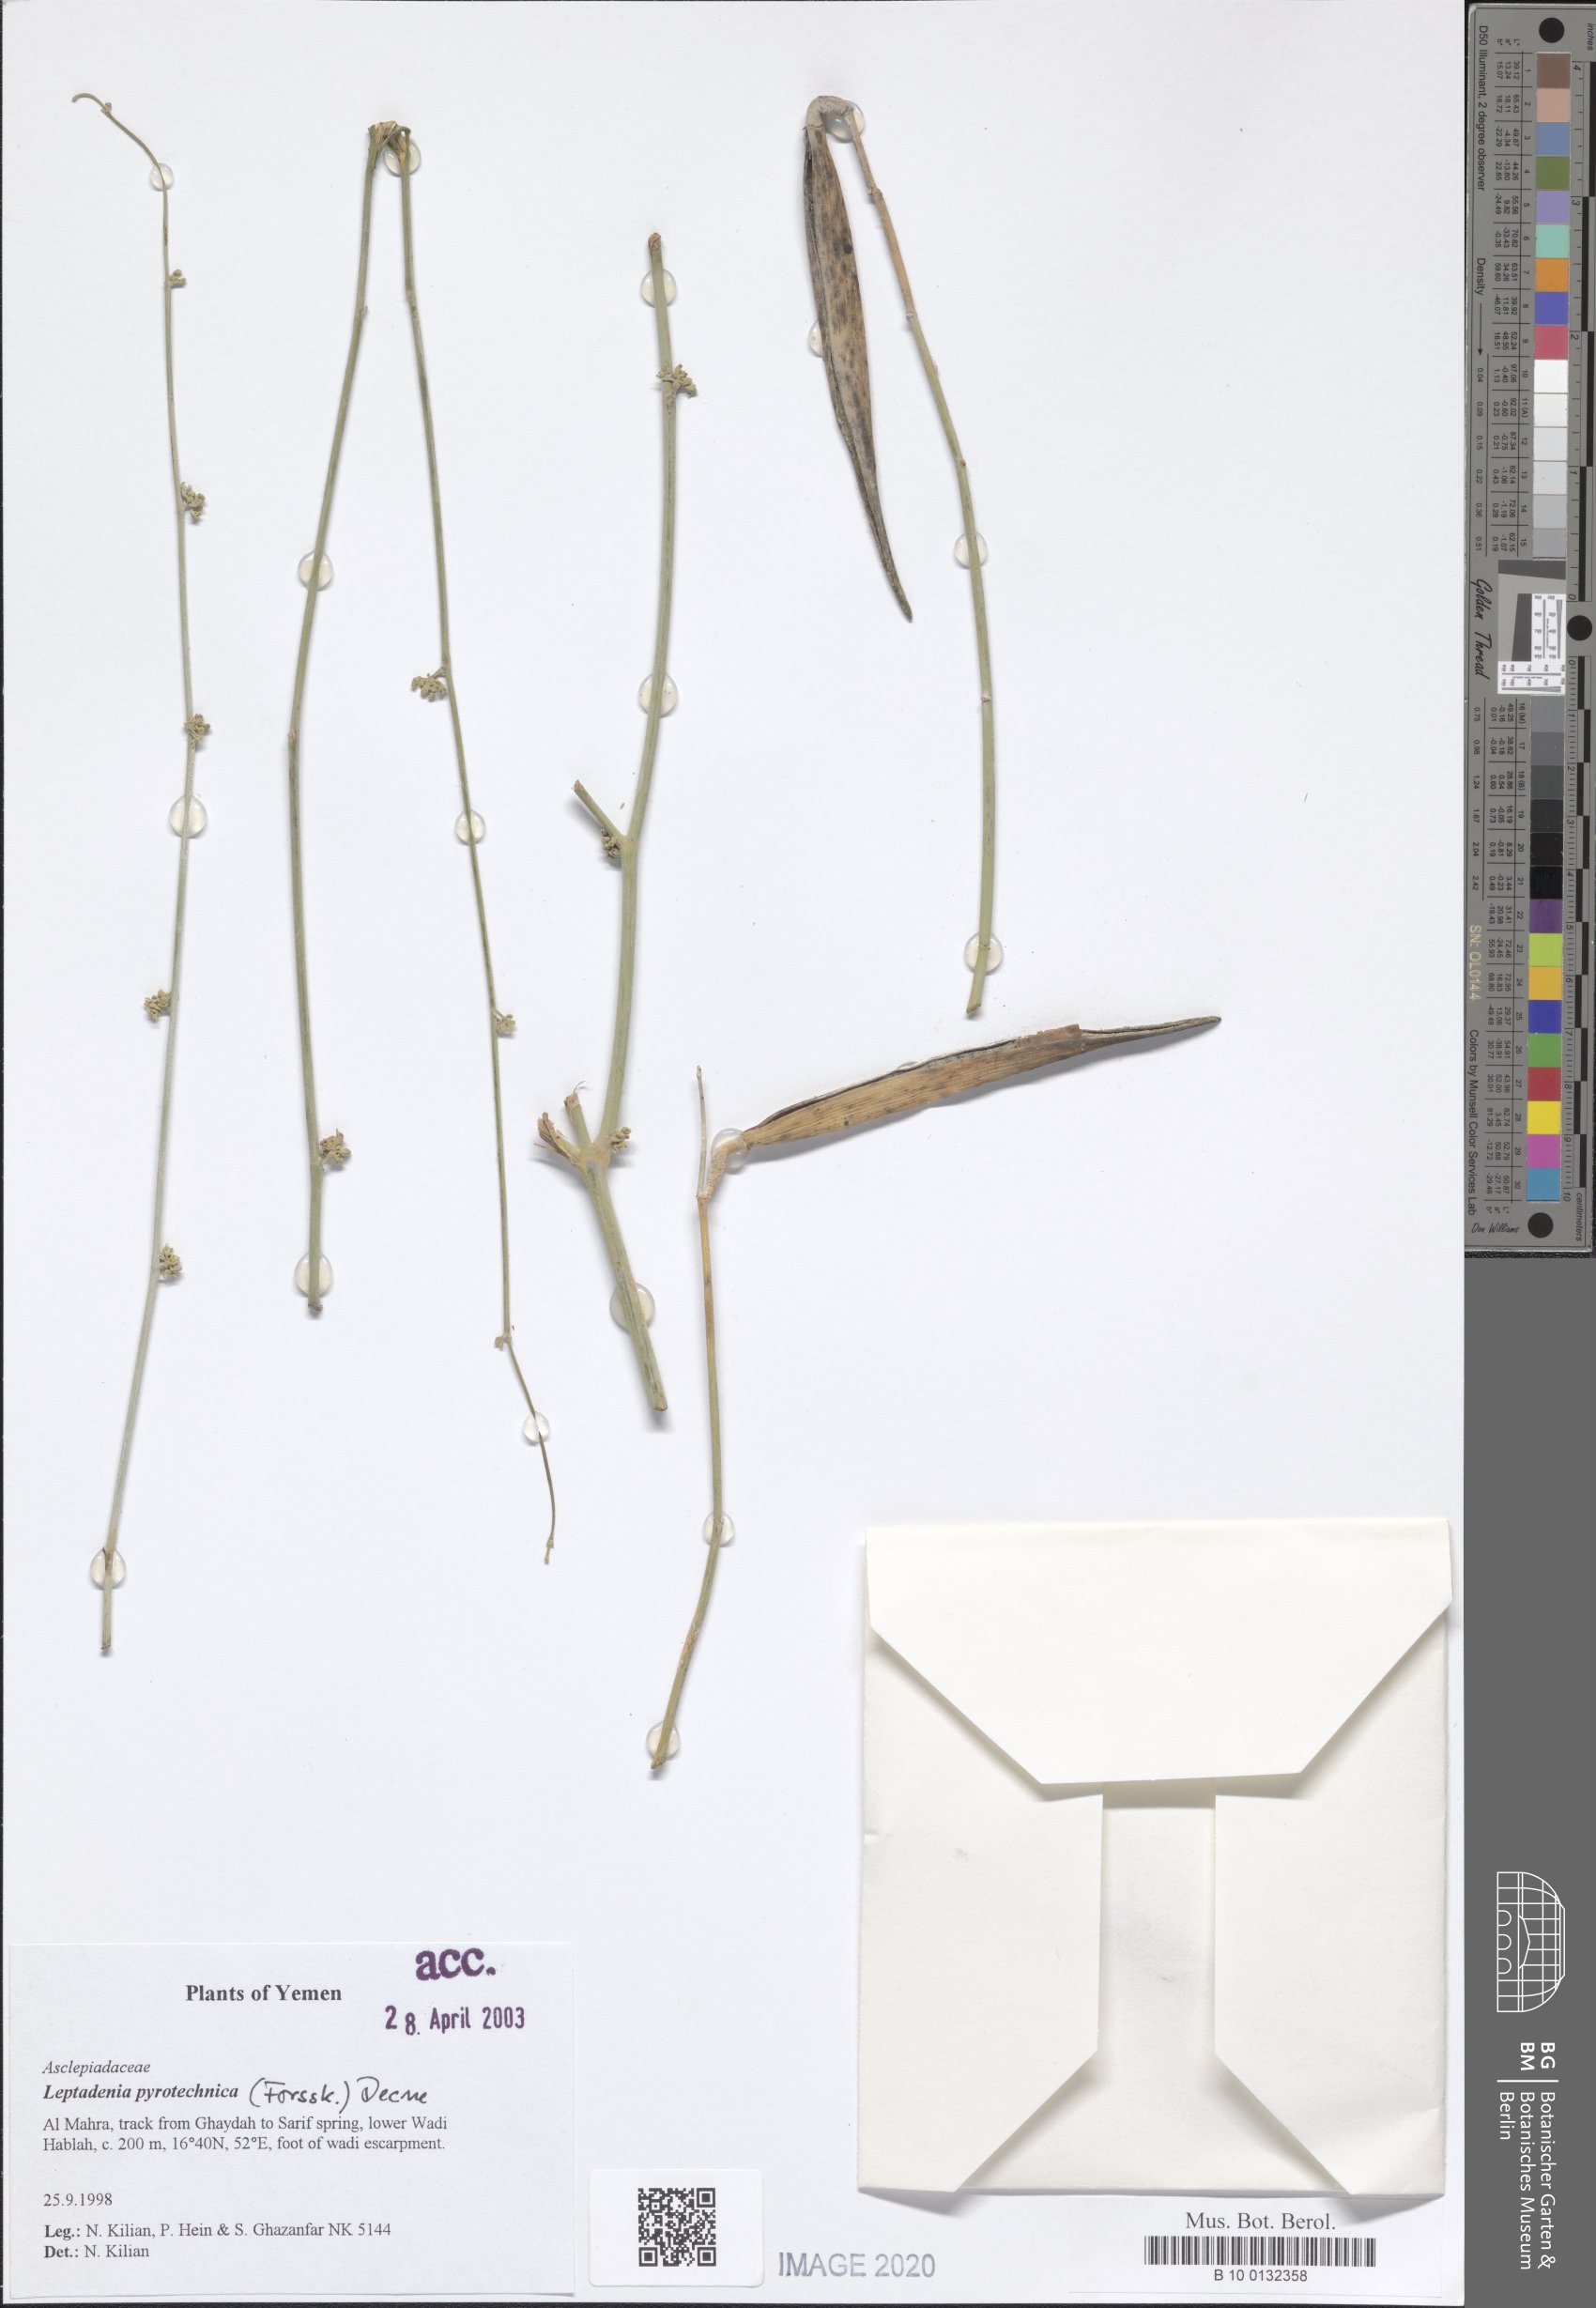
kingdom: Plantae
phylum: Tracheophyta
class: Magnoliopsida
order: Gentianales
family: Apocynaceae
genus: Leptadenia
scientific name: Leptadenia pyrotechnica
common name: Broom brush
